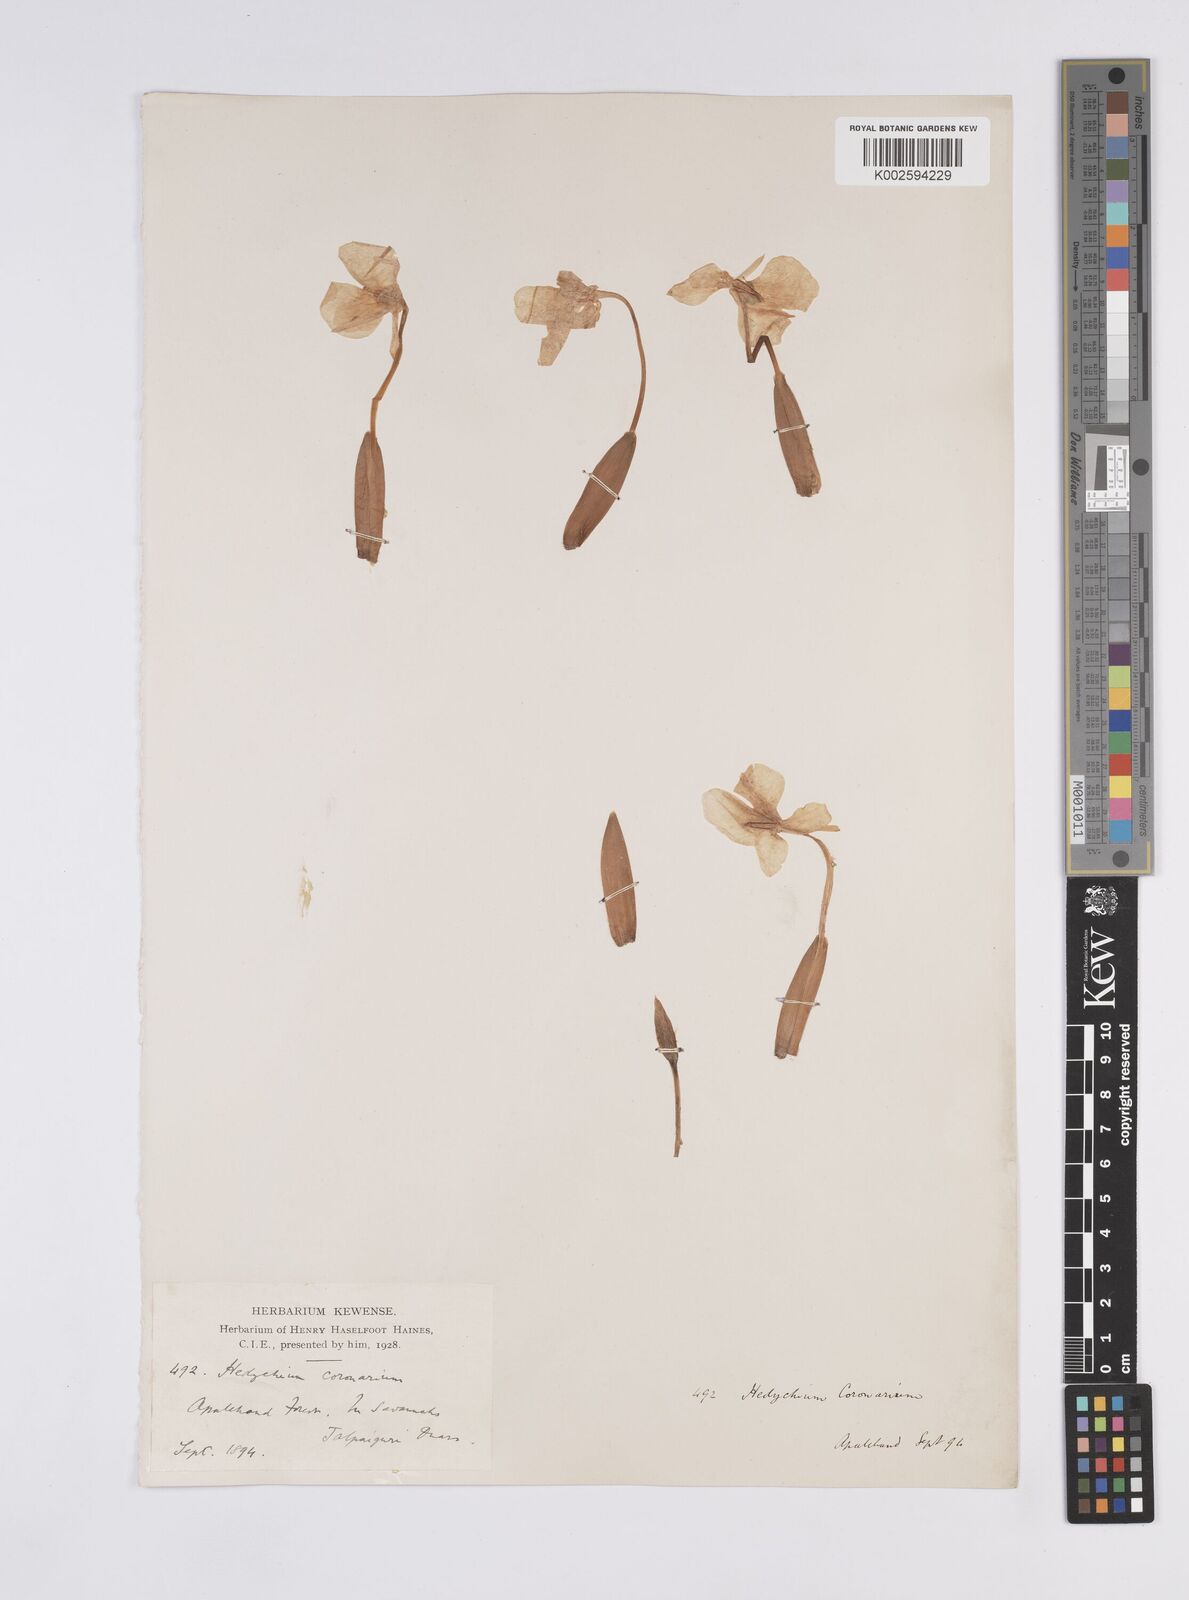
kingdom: Plantae
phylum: Tracheophyta
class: Liliopsida
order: Zingiberales
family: Zingiberaceae
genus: Hedychium
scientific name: Hedychium coronarium
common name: White garland-lily
